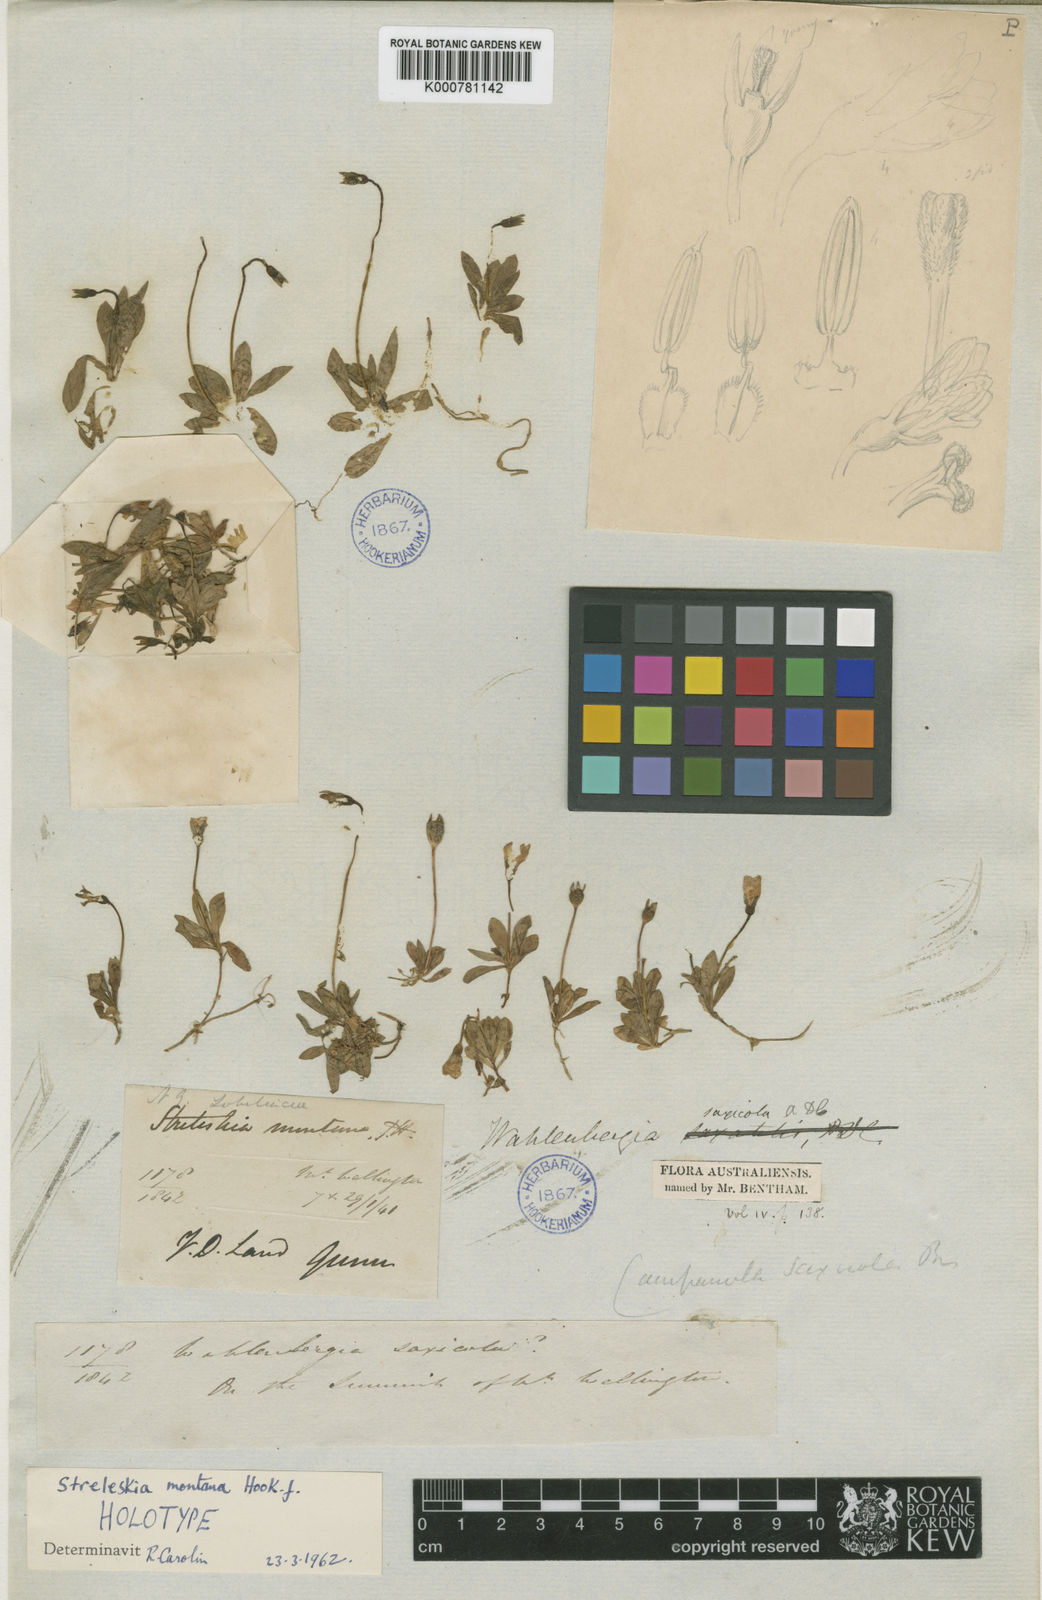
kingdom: Plantae
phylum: Tracheophyta
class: Magnoliopsida
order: Asterales
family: Campanulaceae
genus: Wahlenbergia
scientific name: Wahlenbergia saxicola
